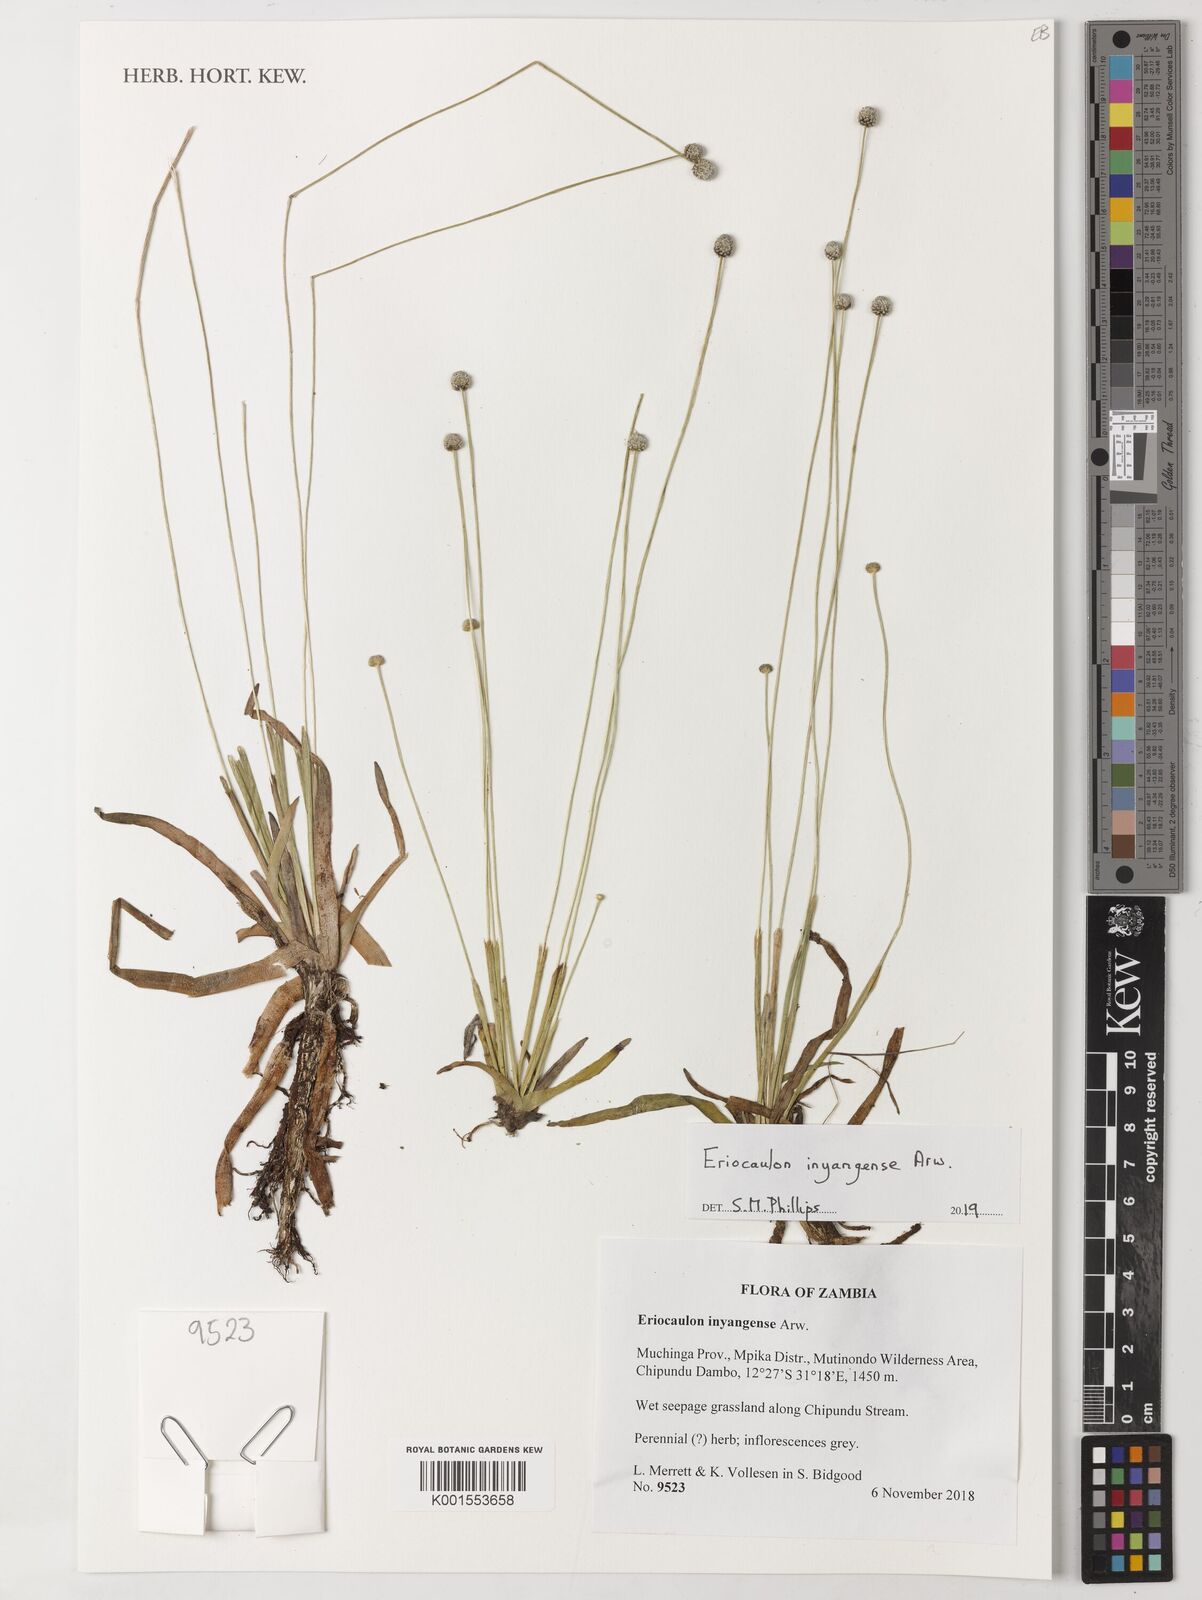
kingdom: Plantae
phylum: Tracheophyta
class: Liliopsida
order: Poales
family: Eriocaulaceae
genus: Eriocaulon
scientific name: Eriocaulon inyangense
